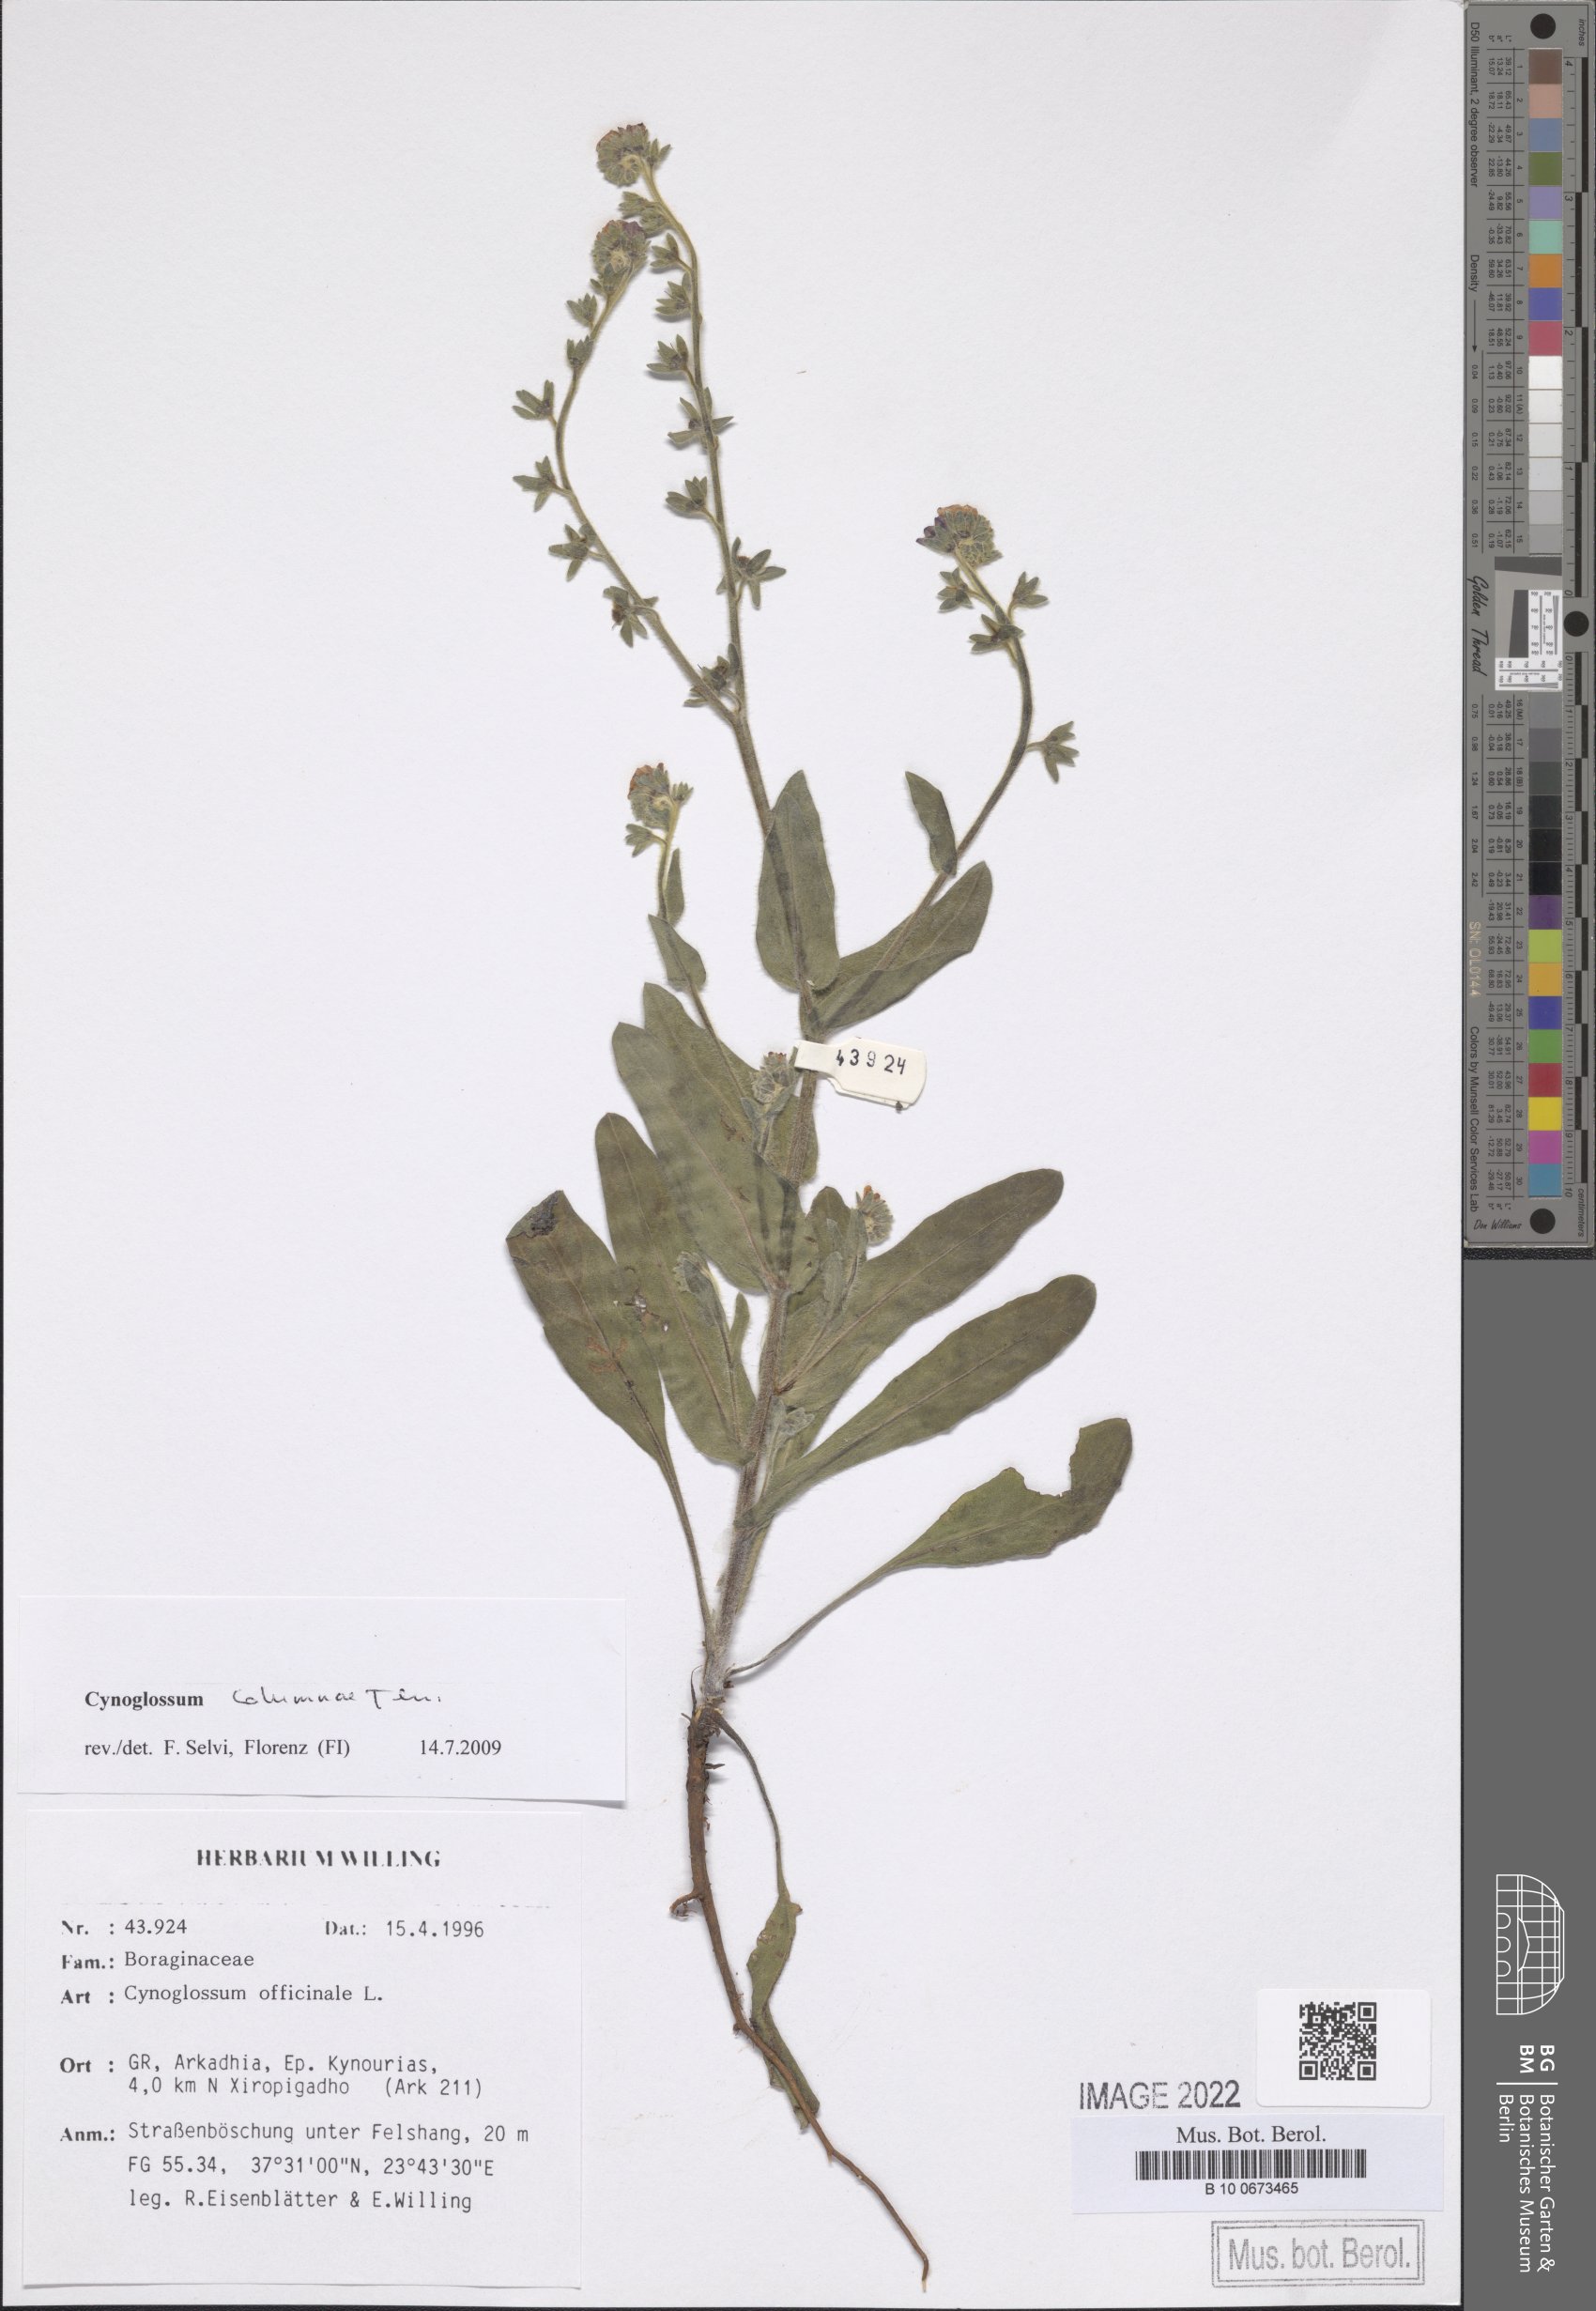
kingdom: Plantae
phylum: Tracheophyta
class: Magnoliopsida
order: Boraginales
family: Boraginaceae
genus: Rindera
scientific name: Rindera columnae
